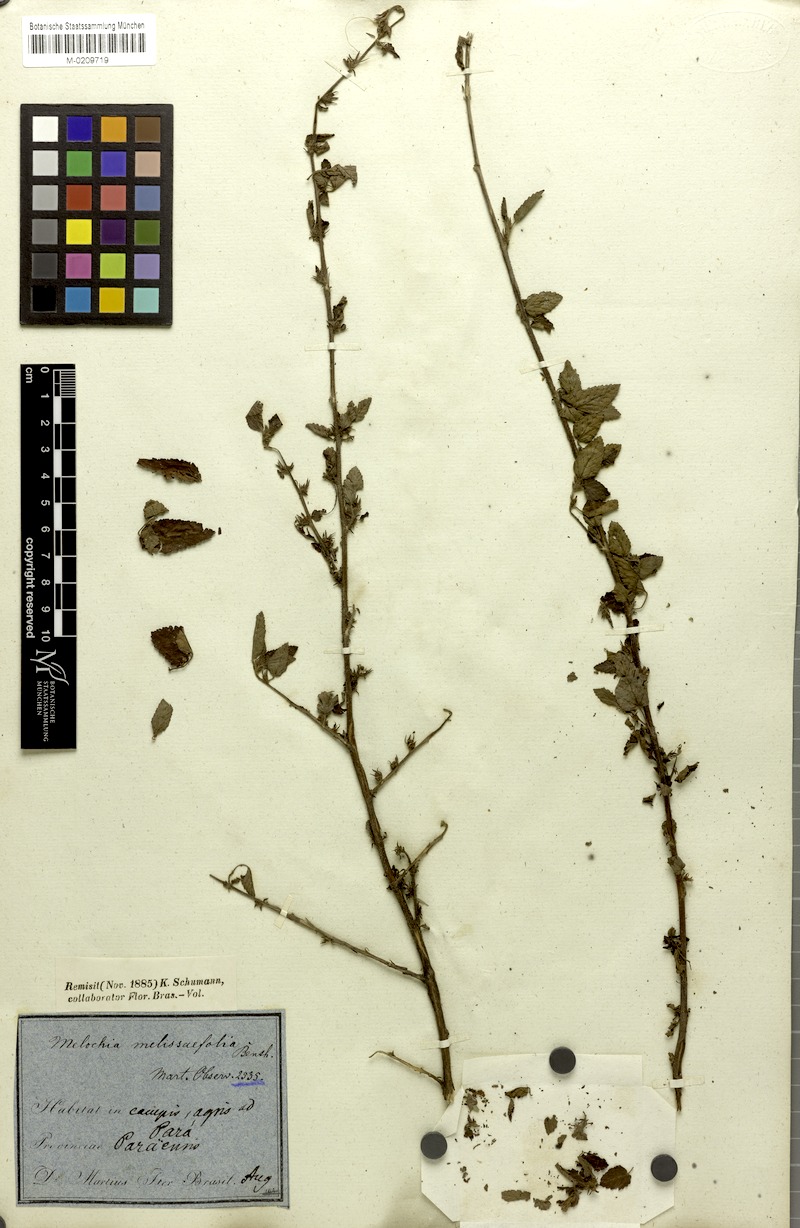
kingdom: Plantae
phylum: Tracheophyta
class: Magnoliopsida
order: Malvales
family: Malvaceae
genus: Melochia
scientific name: Melochia melissifolia
